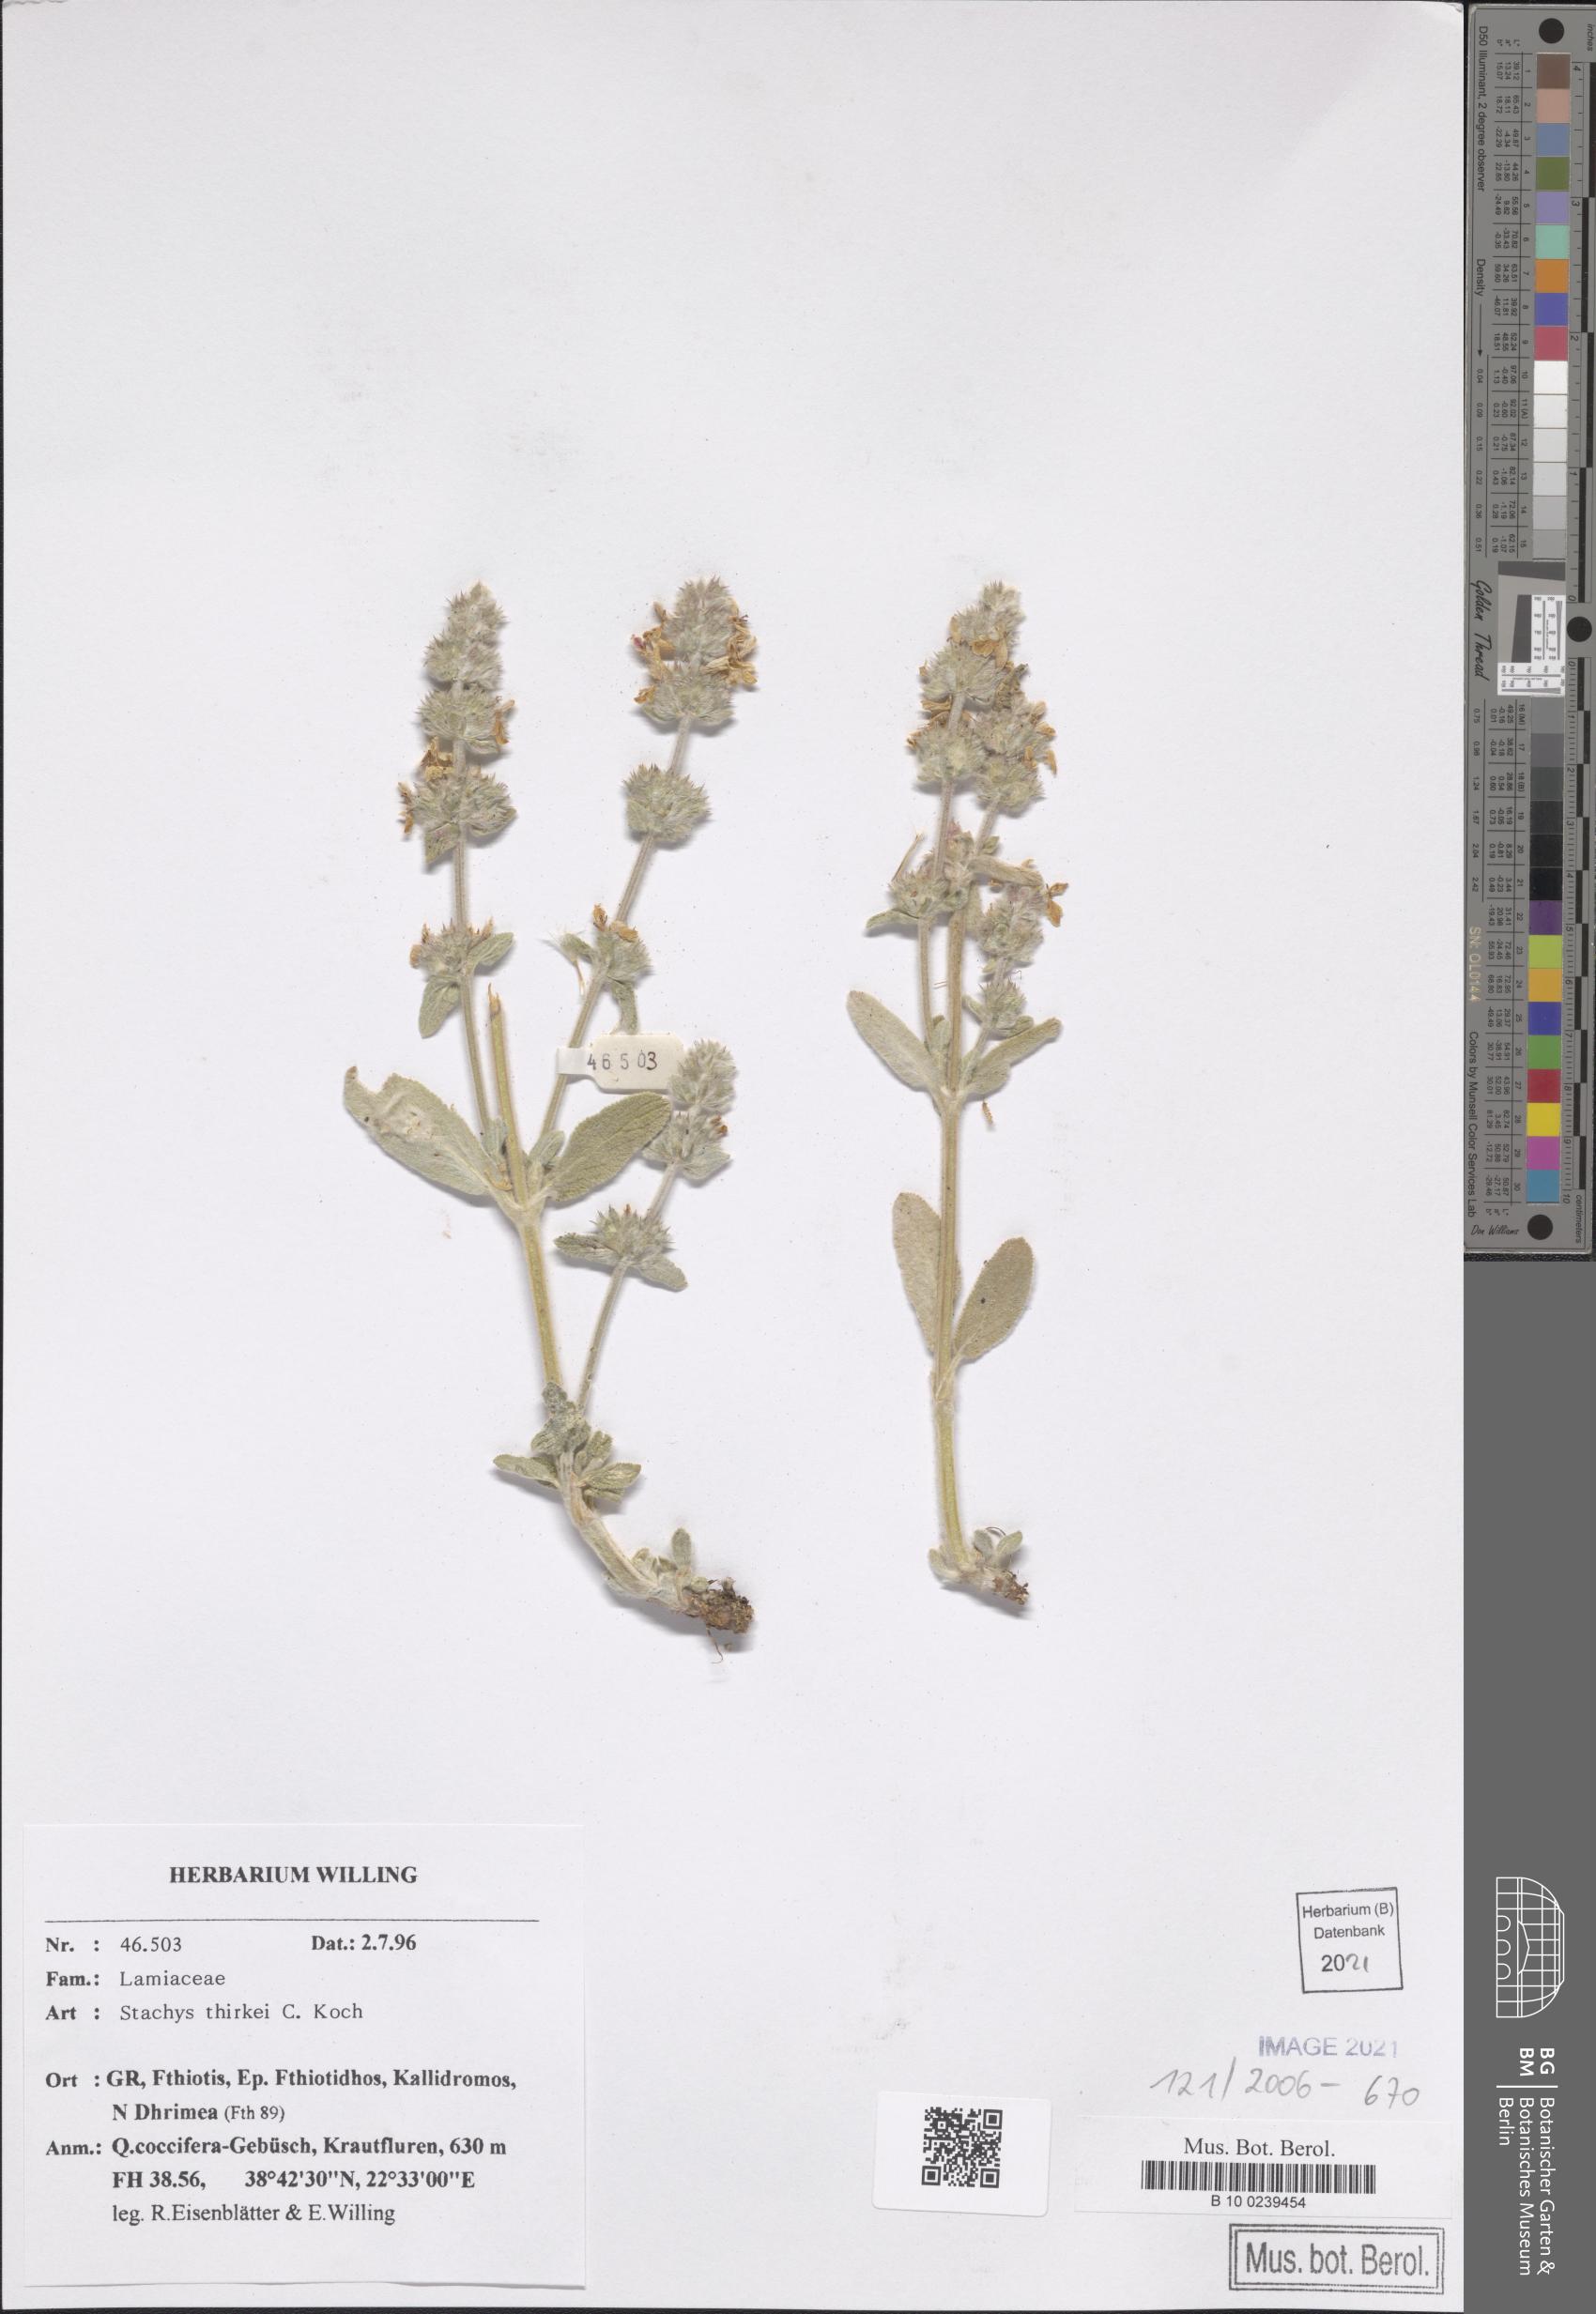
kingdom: Plantae
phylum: Tracheophyta
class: Magnoliopsida
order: Lamiales
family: Lamiaceae
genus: Stachys
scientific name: Stachys thirkei
